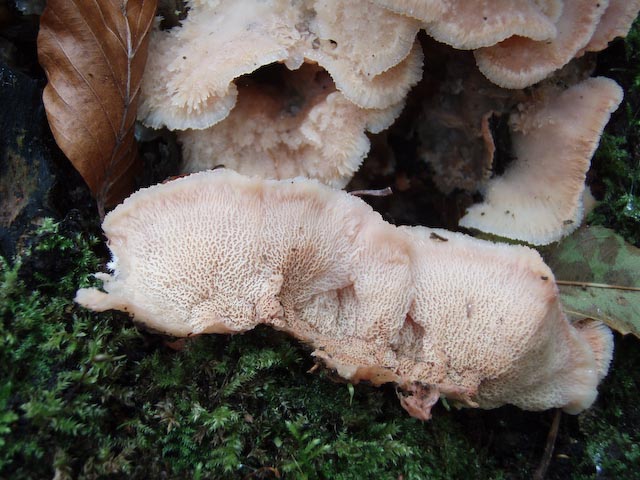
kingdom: Fungi
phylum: Basidiomycota
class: Agaricomycetes
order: Polyporales
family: Meruliaceae
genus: Phlebia
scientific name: Phlebia tremellosa
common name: bævrende åresvamp
